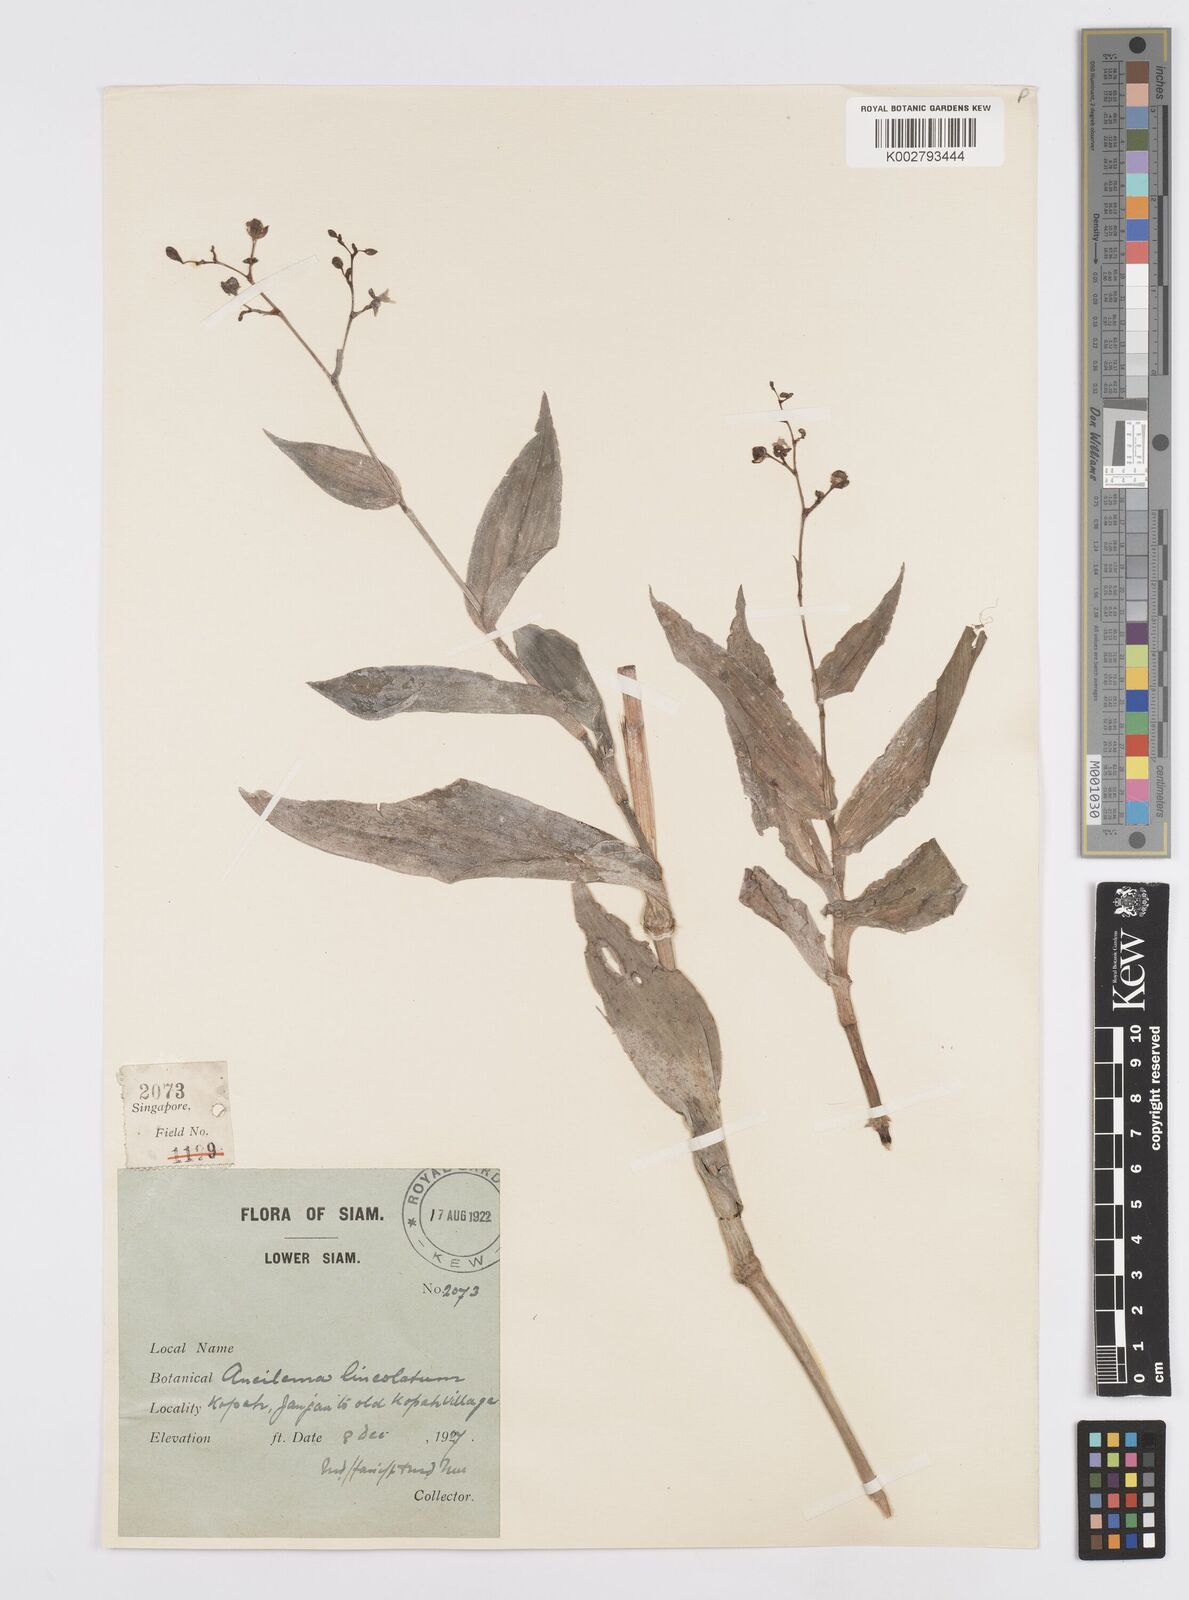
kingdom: Plantae
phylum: Tracheophyta
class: Liliopsida
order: Commelinales
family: Commelinaceae
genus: Murdannia
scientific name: Murdannia
